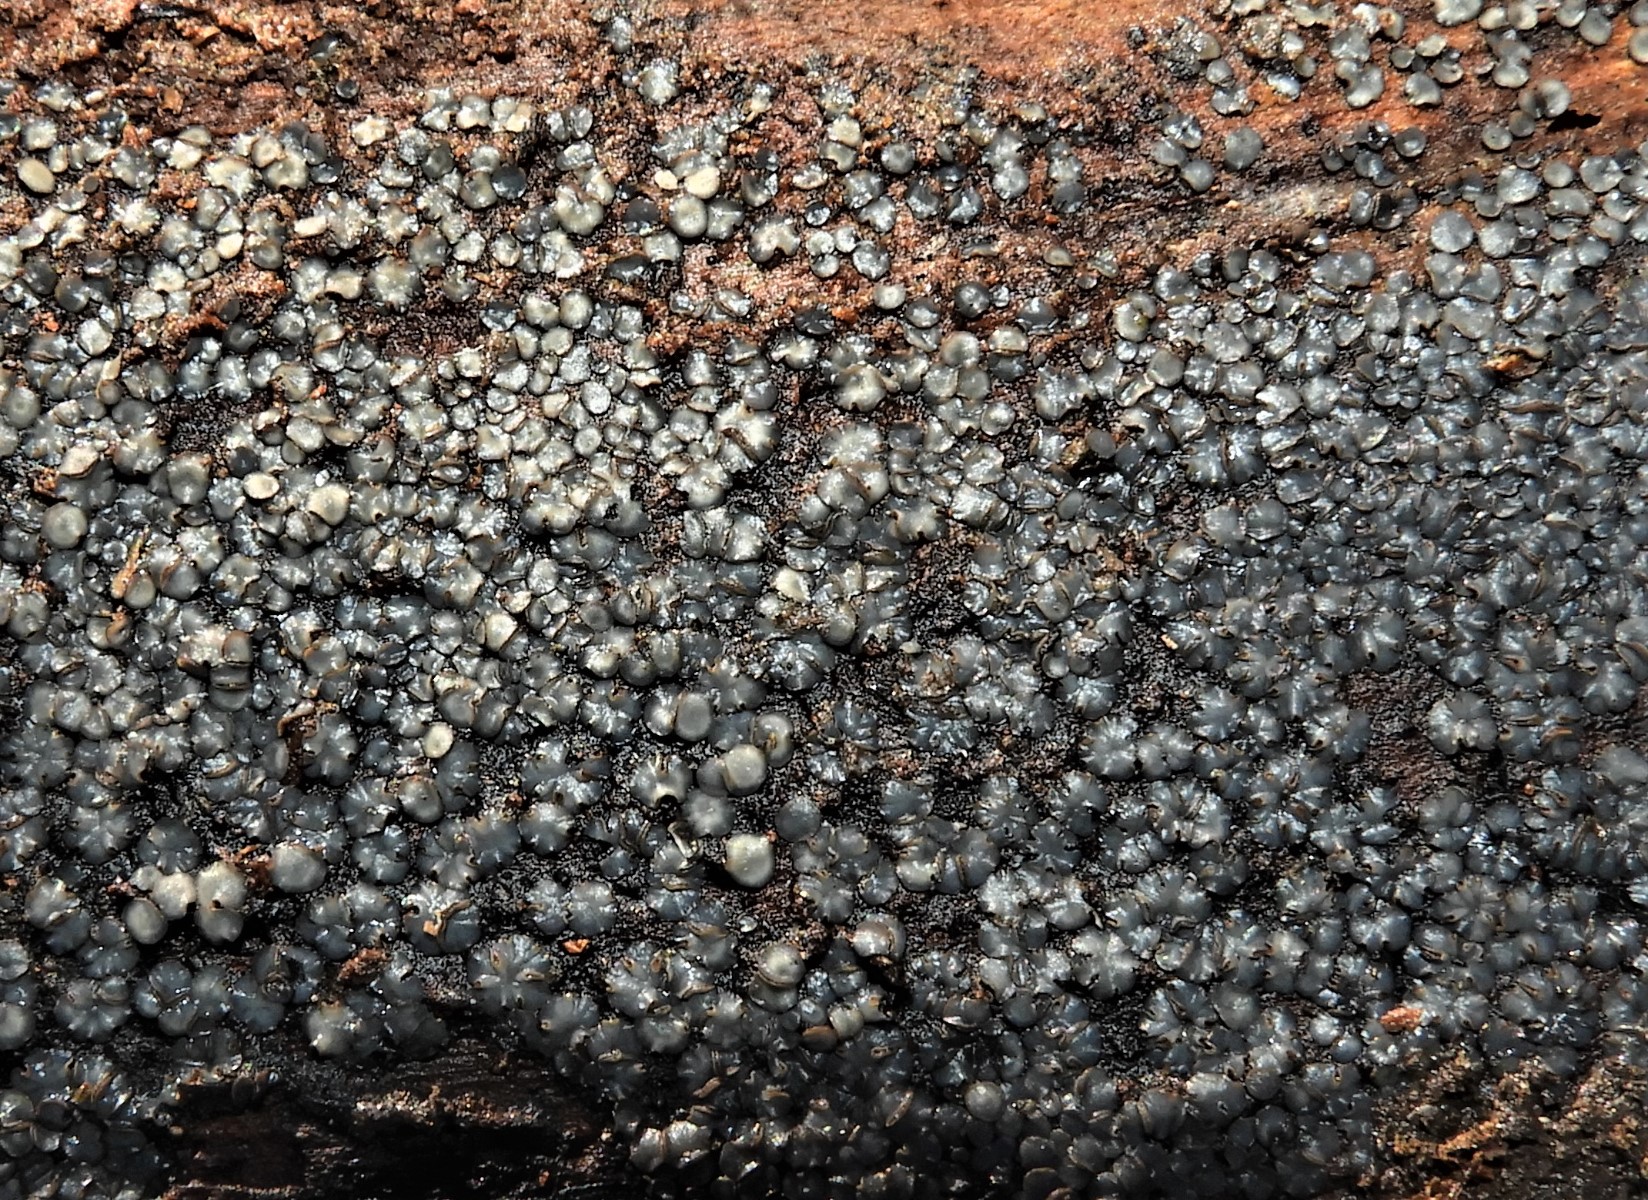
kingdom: Fungi
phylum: Ascomycota
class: Leotiomycetes
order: Helotiales
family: Mollisiaceae
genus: Mollisia
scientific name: Mollisia
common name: gråskive
